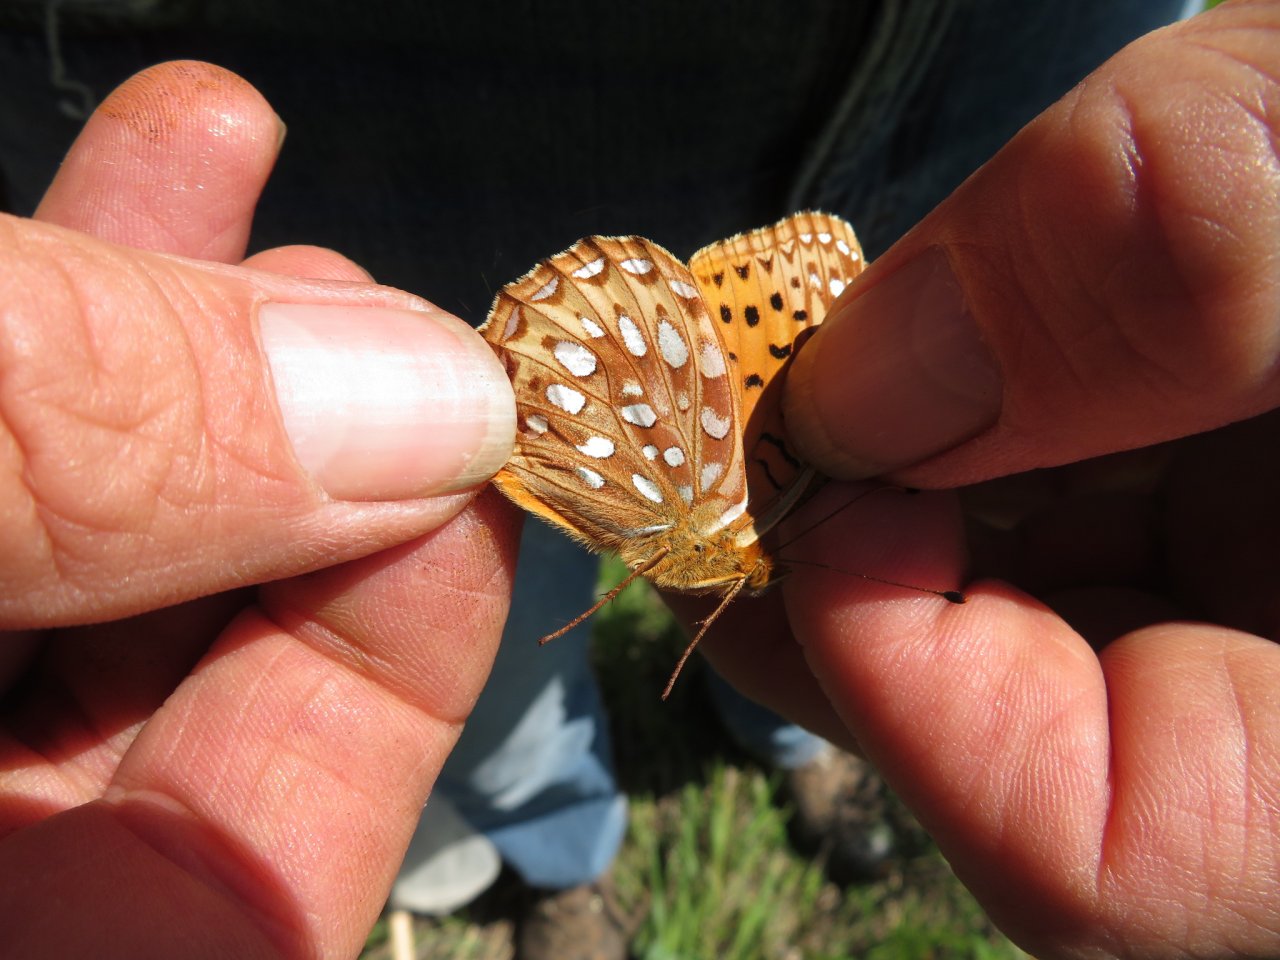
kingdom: Animalia
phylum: Arthropoda
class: Insecta
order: Lepidoptera
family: Nymphalidae
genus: Speyeria
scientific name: Speyeria aphrodite
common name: Aphrodite Fritillary
